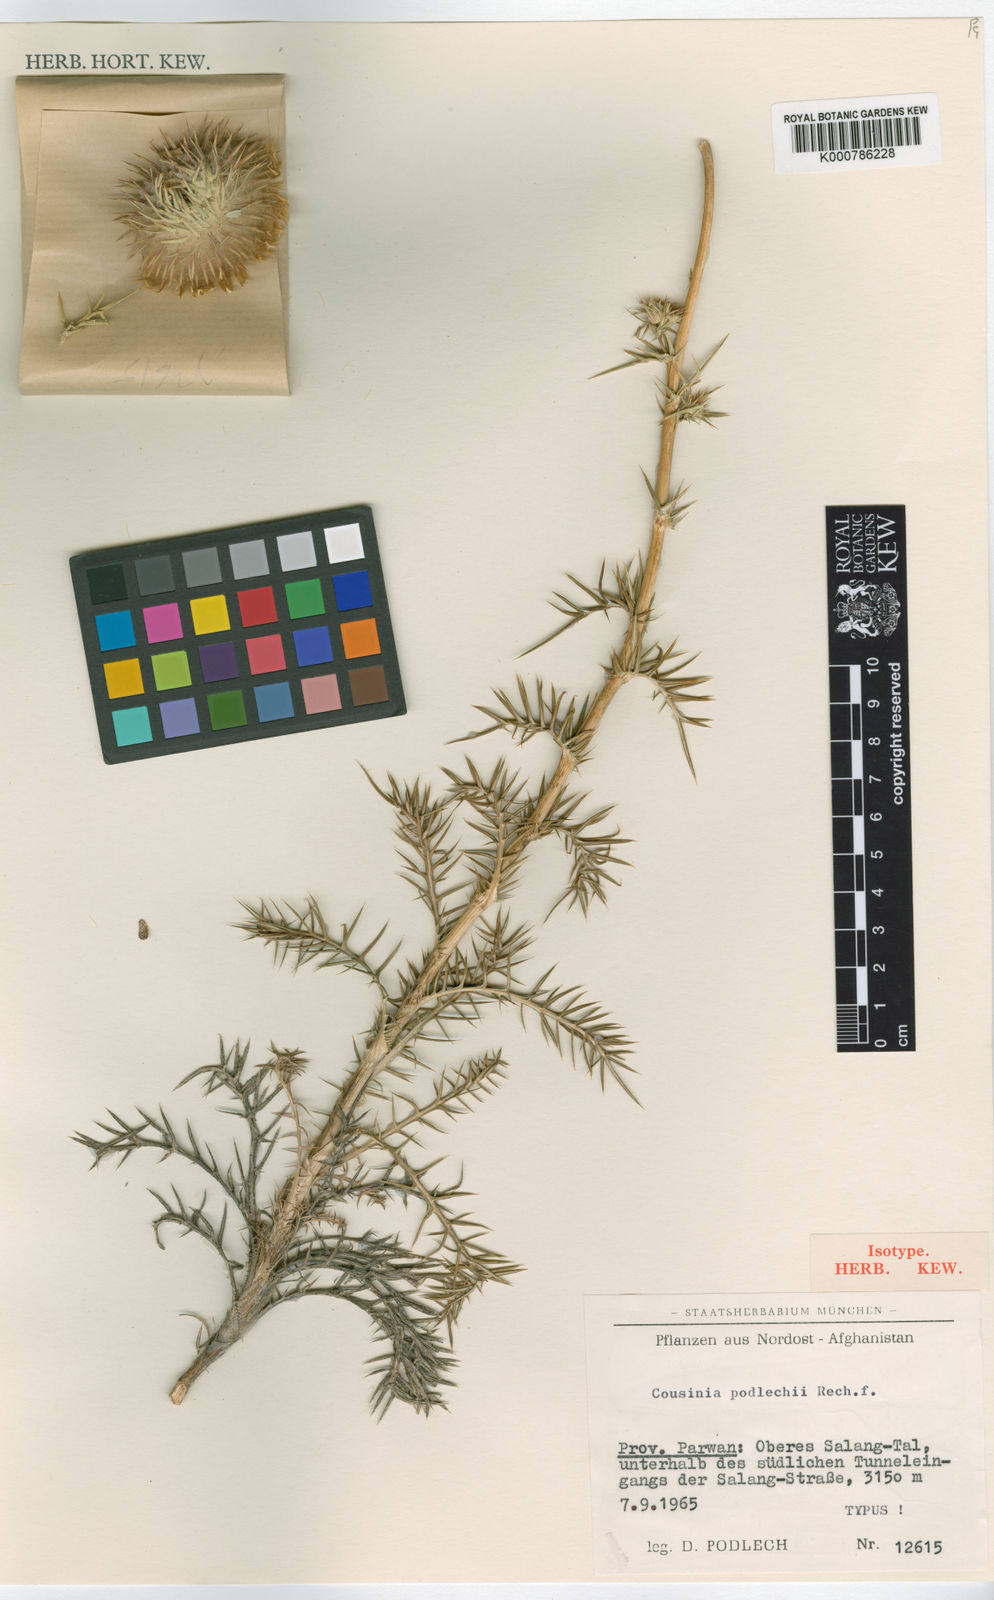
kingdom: Plantae
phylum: Tracheophyta
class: Magnoliopsida
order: Asterales
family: Asteraceae
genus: Cousinia
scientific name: Cousinia podlechii
